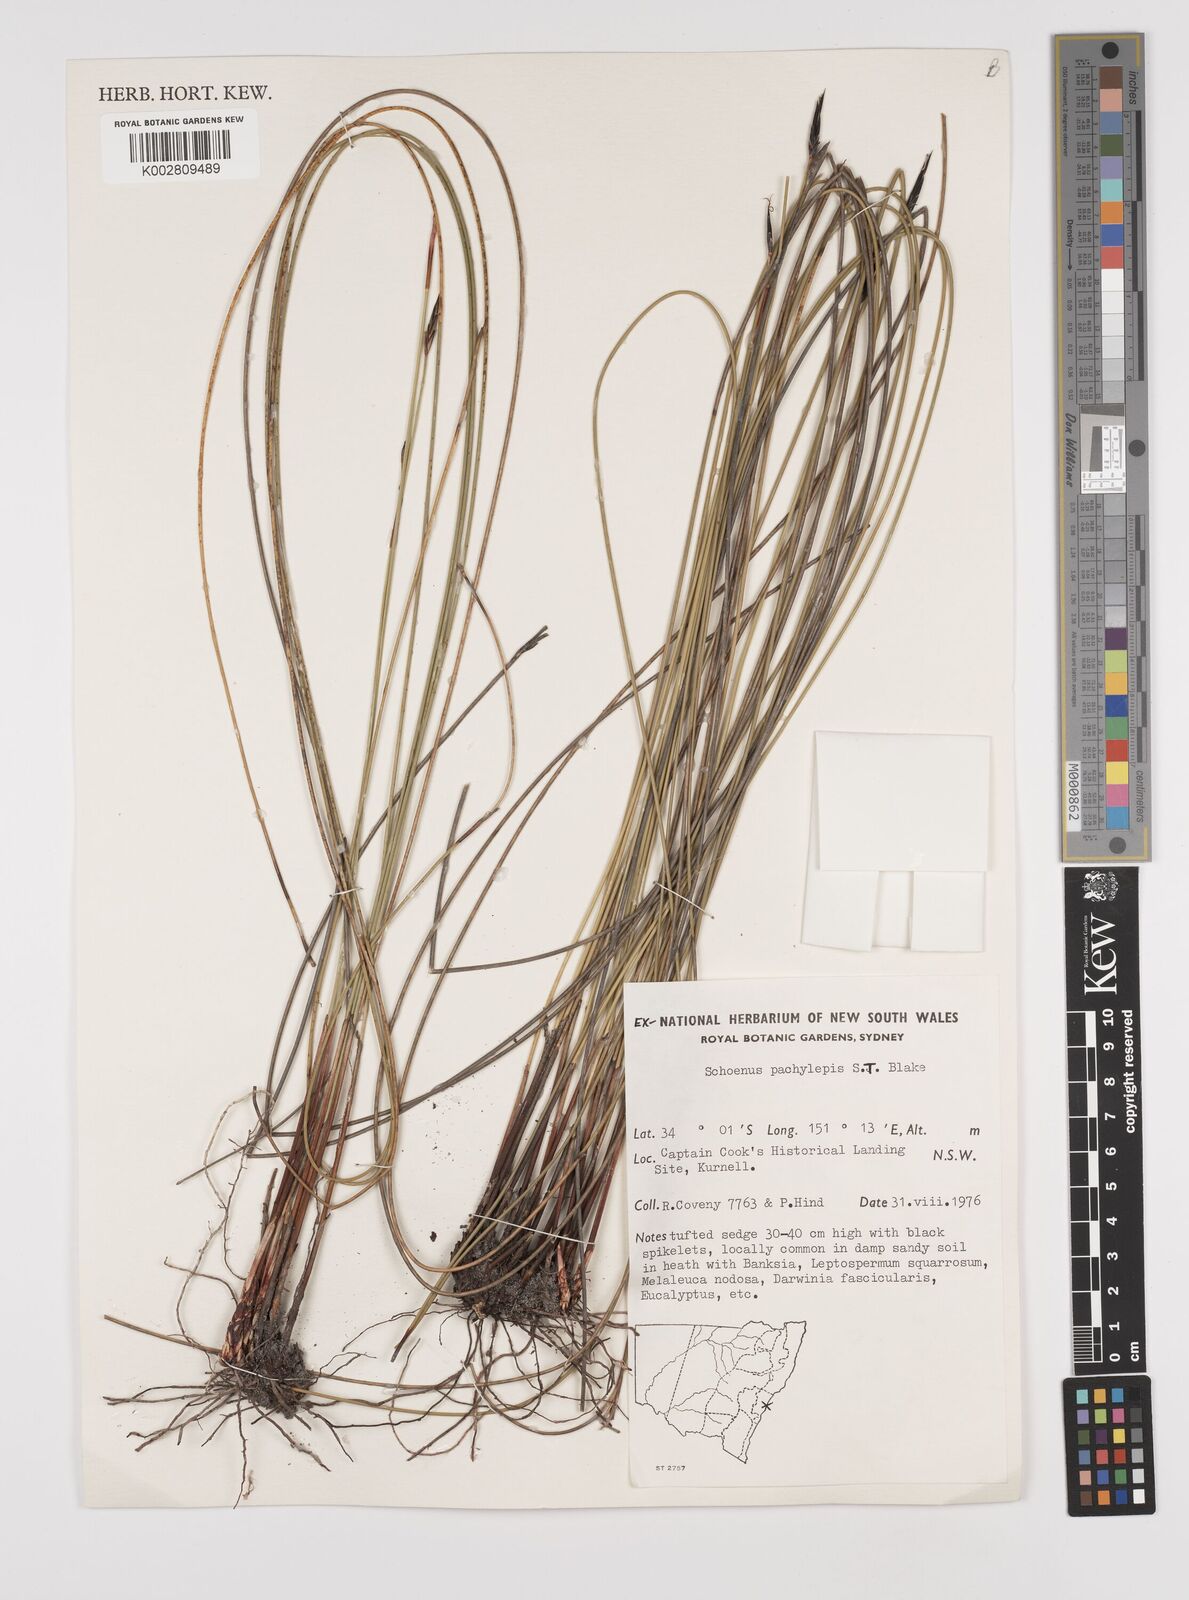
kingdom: Plantae
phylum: Tracheophyta
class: Liliopsida
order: Poales
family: Cyperaceae
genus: Schoenus
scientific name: Schoenus lepidosperma
